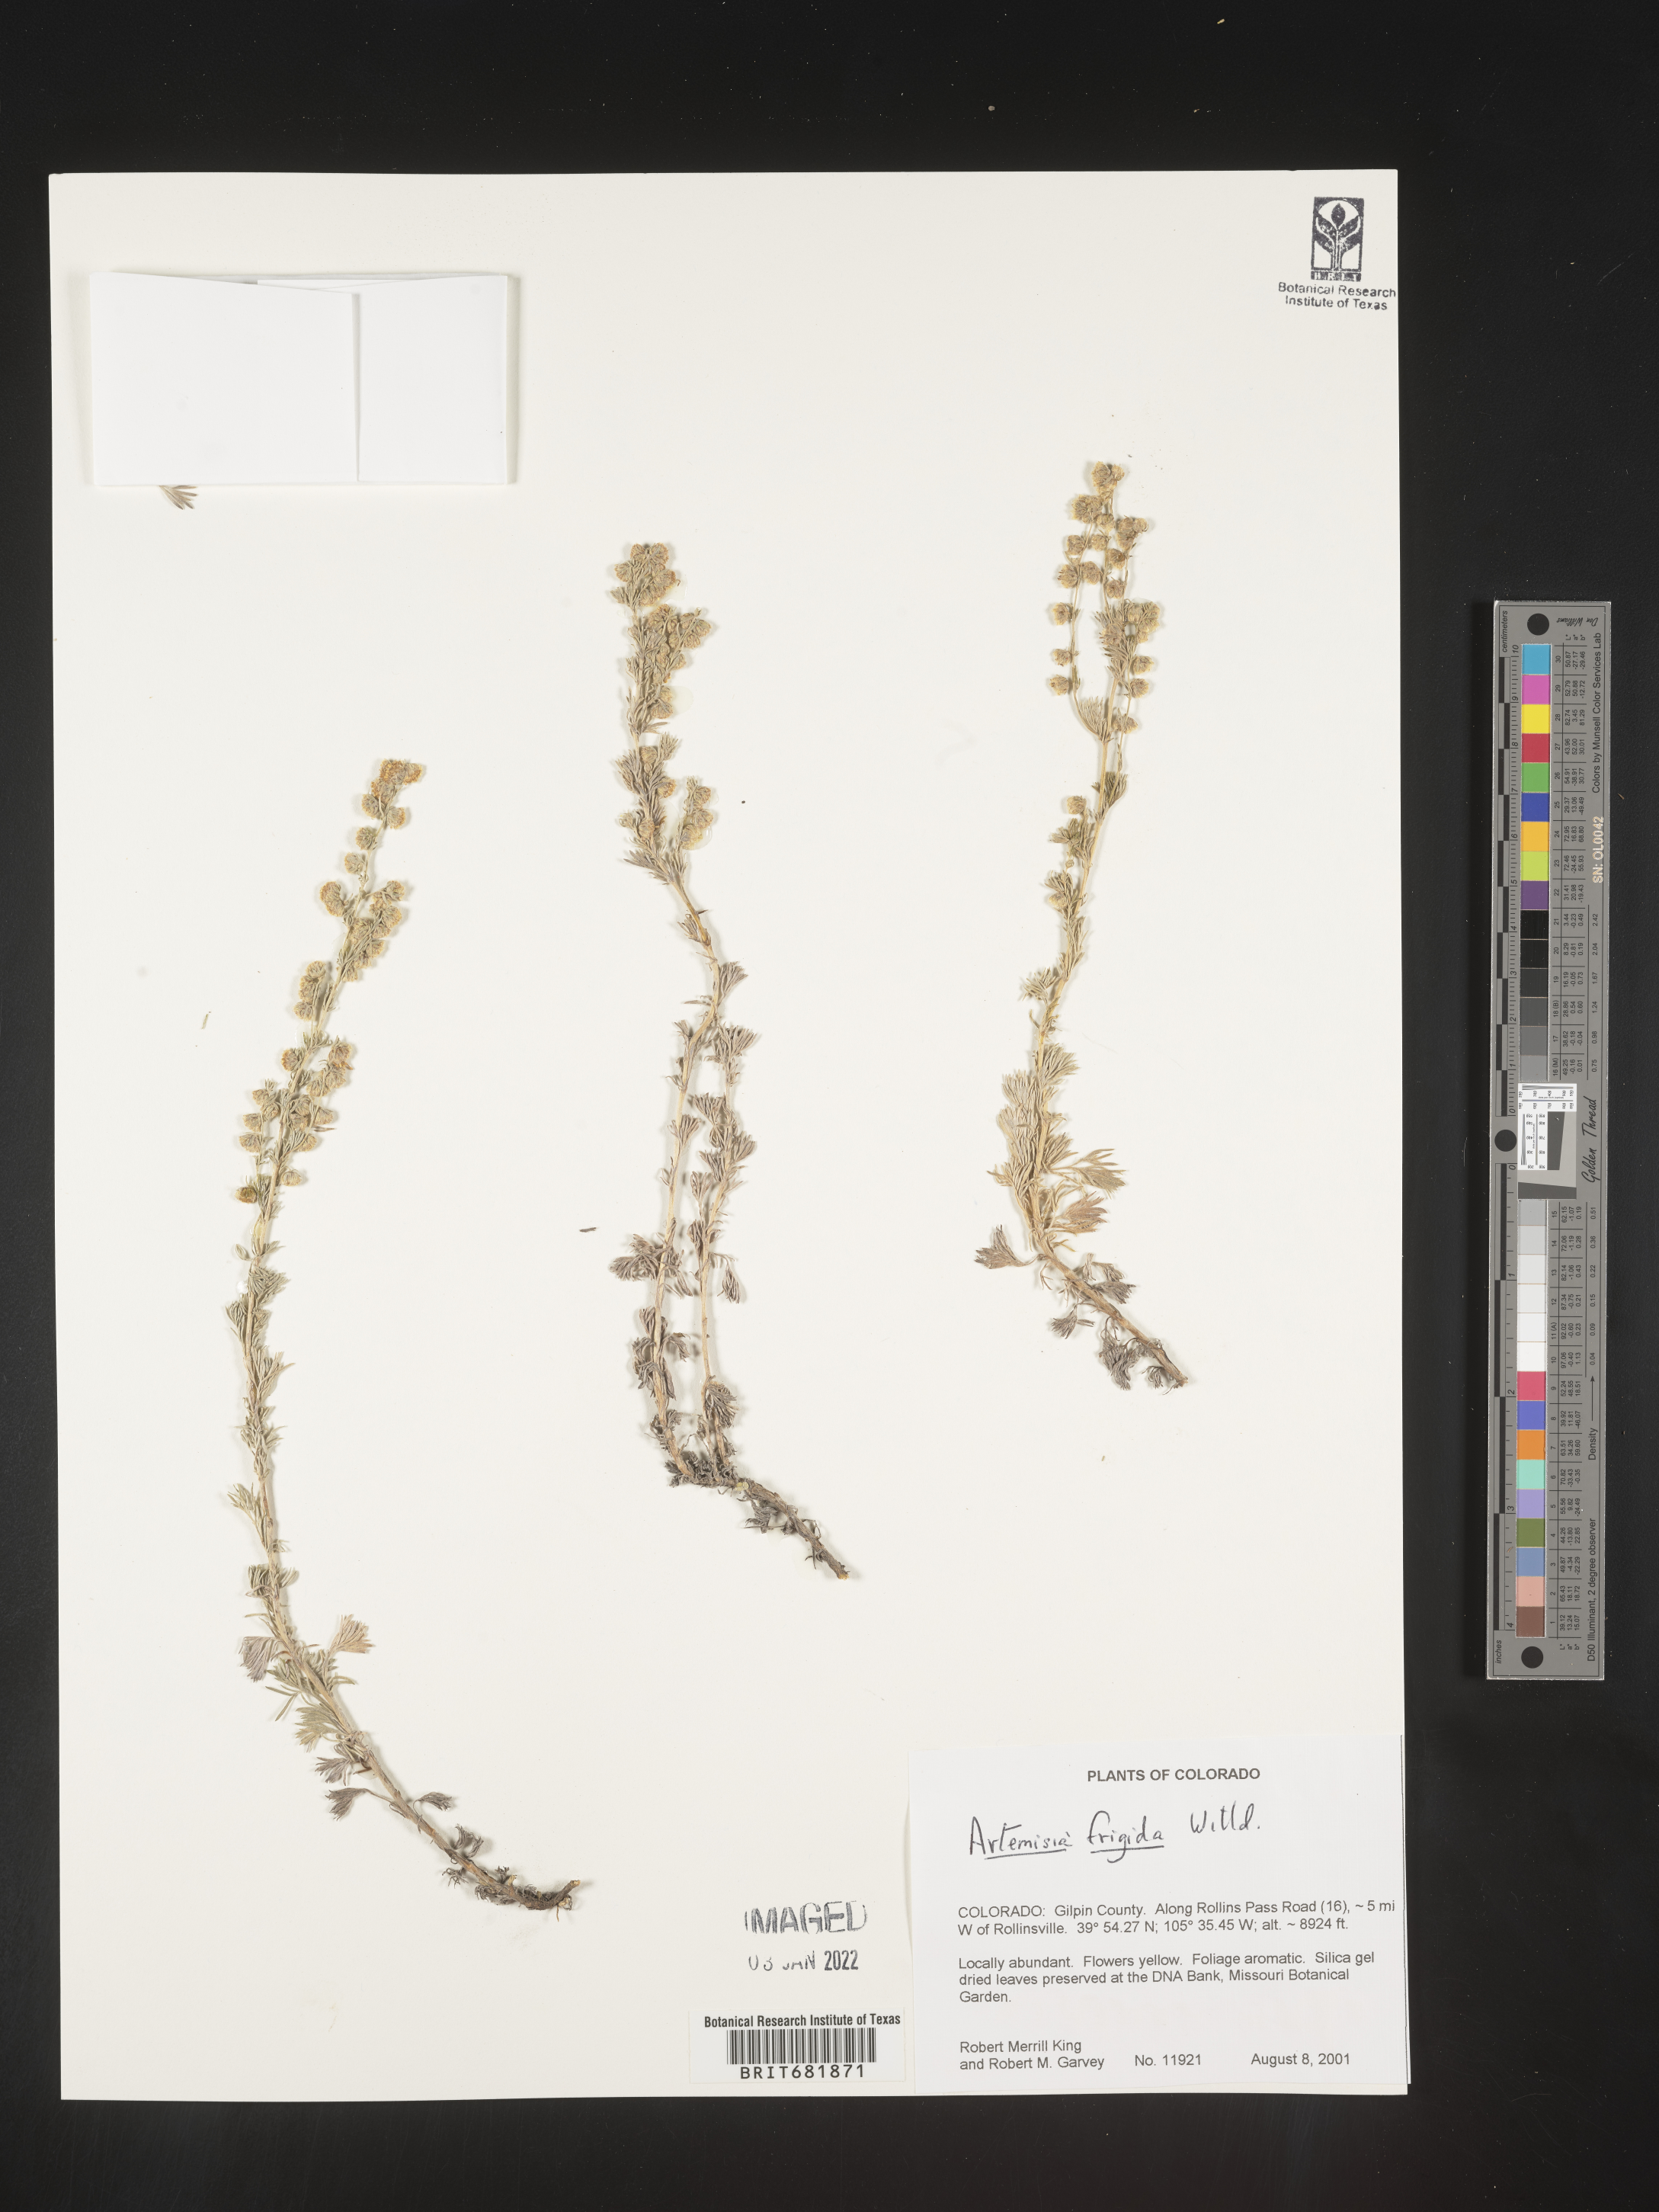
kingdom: Plantae
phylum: Tracheophyta
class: Magnoliopsida
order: Asterales
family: Asteraceae
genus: Artemisia
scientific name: Artemisia frigida
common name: Prairie sagewort
